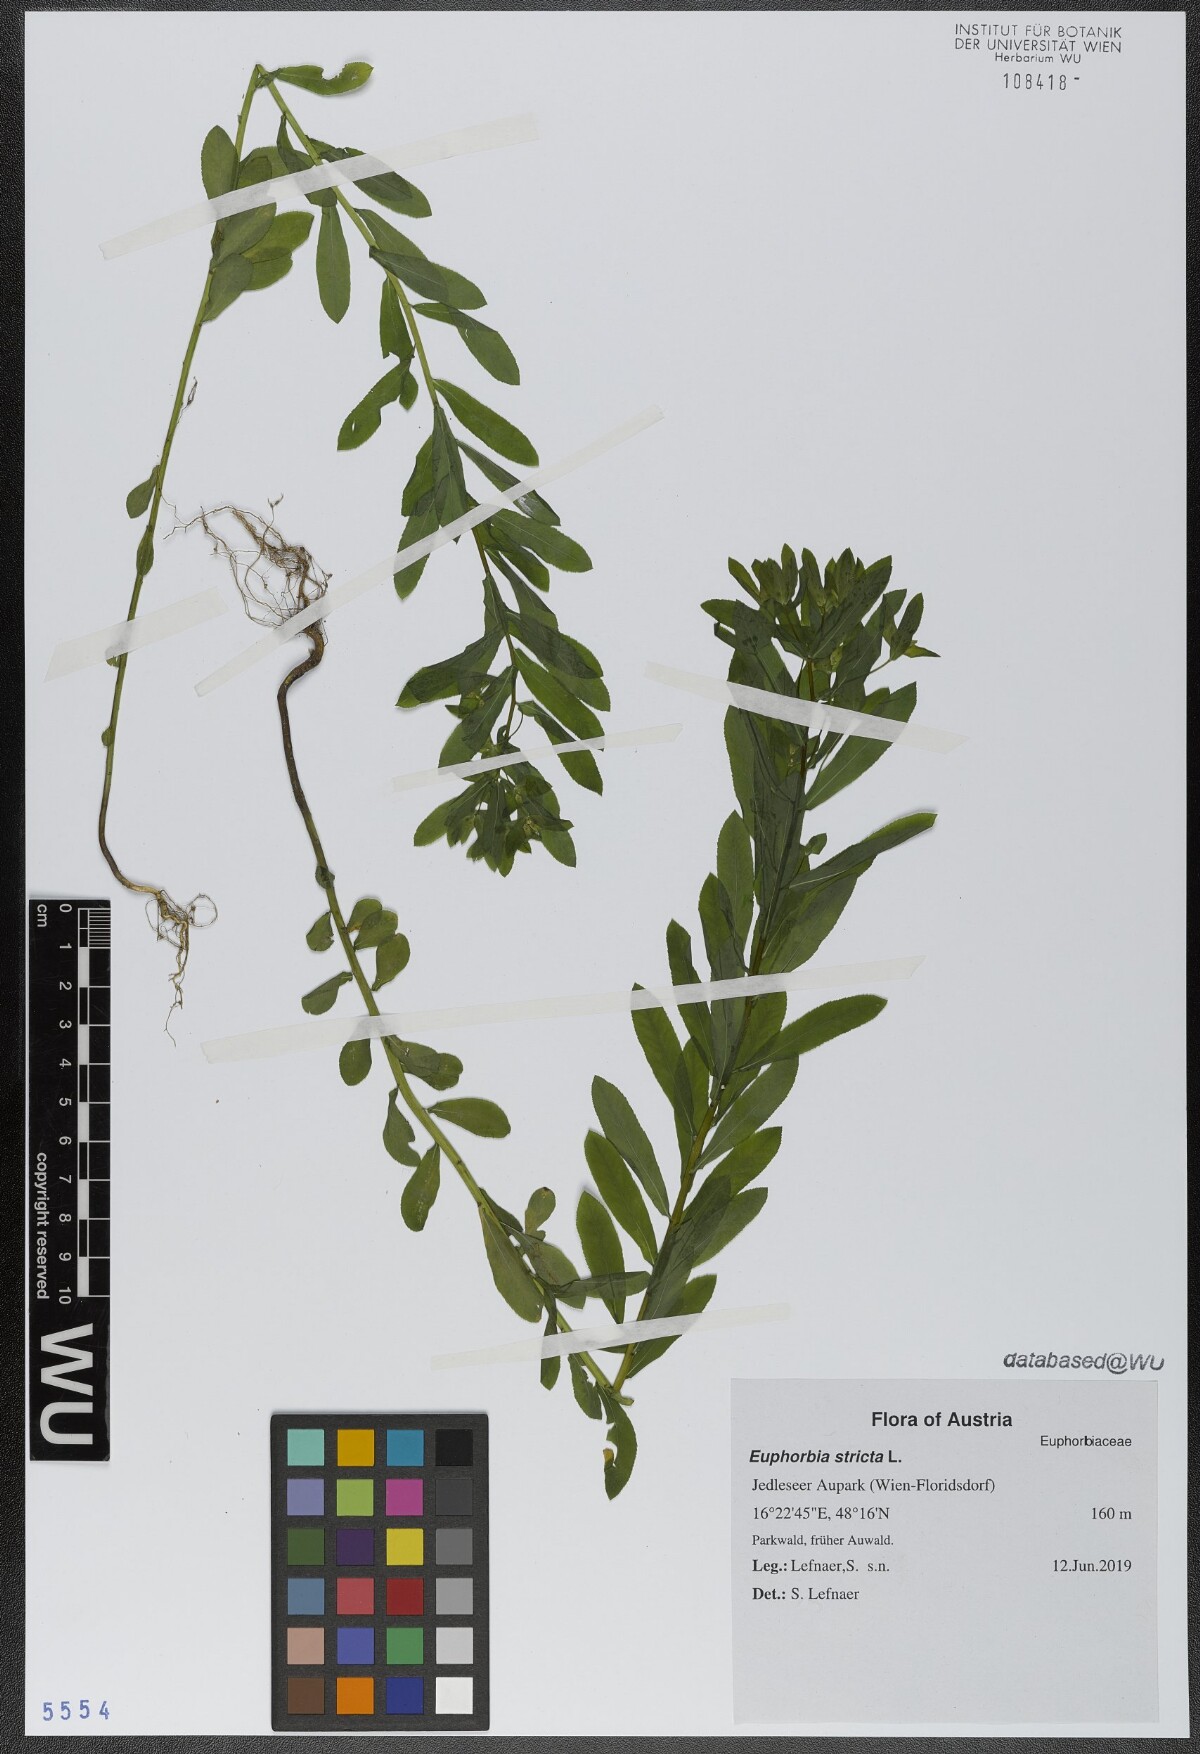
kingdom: Plantae
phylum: Tracheophyta
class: Magnoliopsida
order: Malpighiales
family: Euphorbiaceae
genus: Euphorbia
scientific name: Euphorbia stricta
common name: Upright spurge
